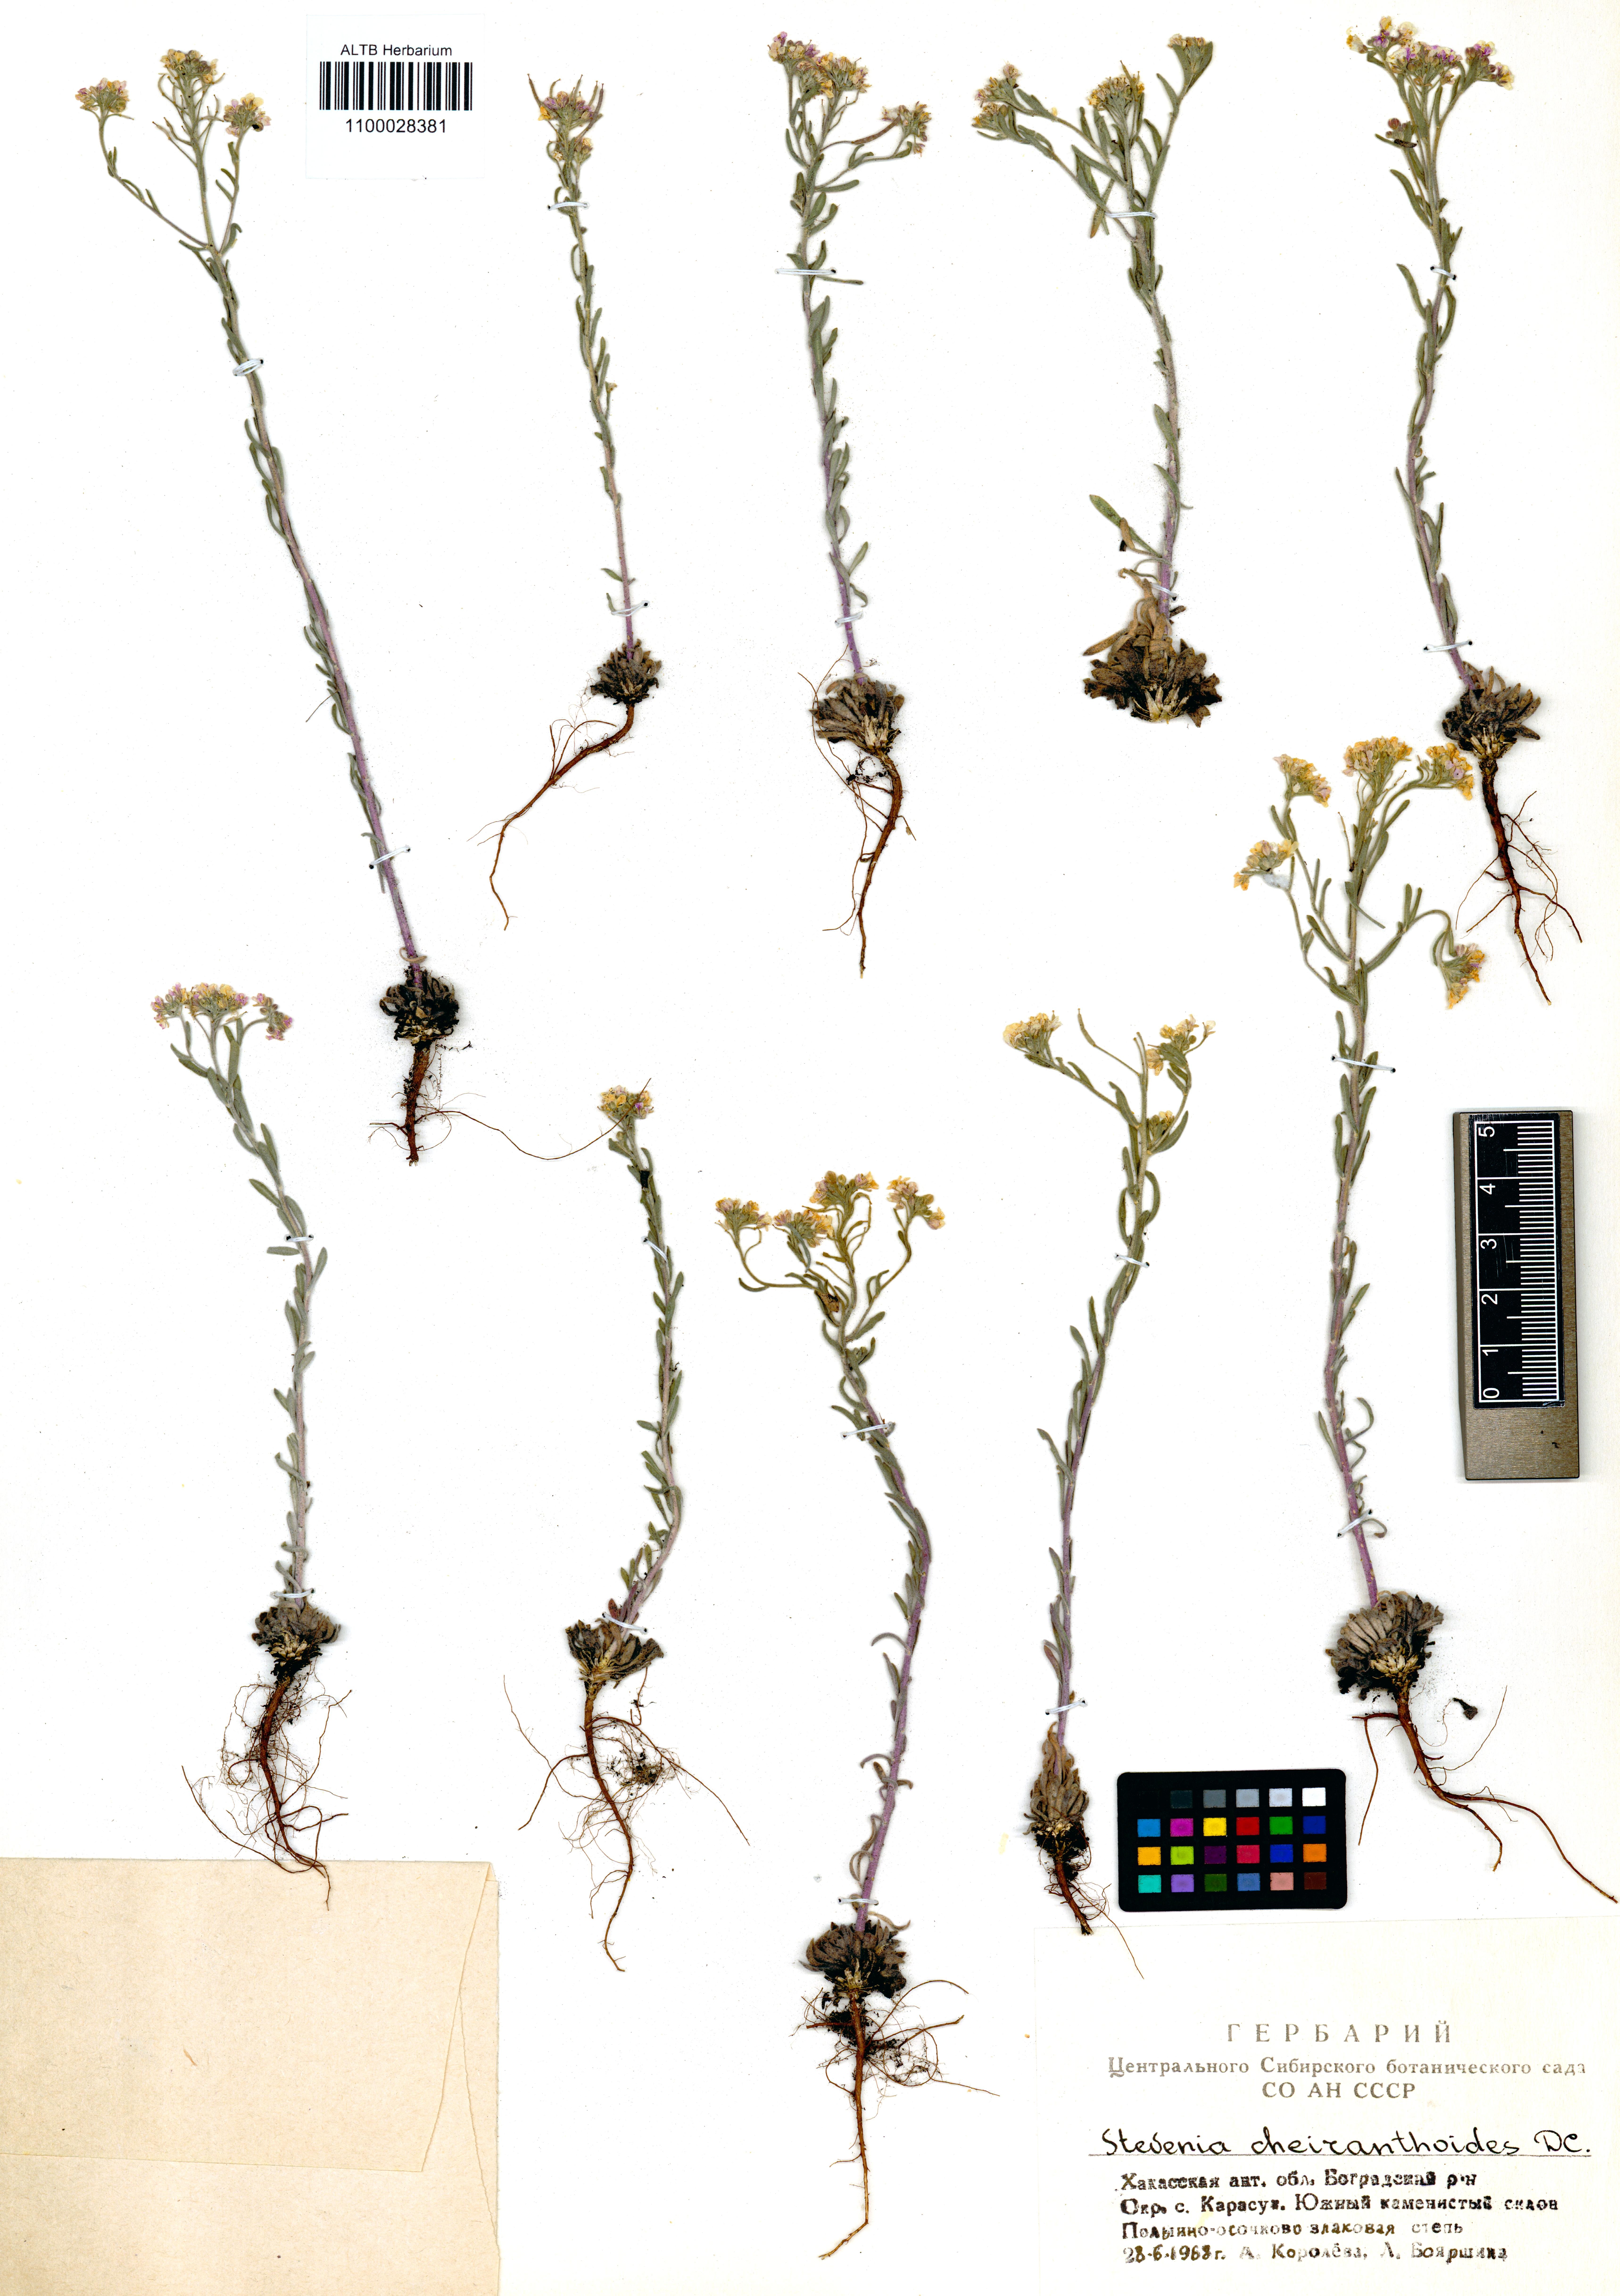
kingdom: Plantae
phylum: Tracheophyta
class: Magnoliopsida
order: Brassicales
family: Brassicaceae
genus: Stevenia
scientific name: Stevenia incarnata
